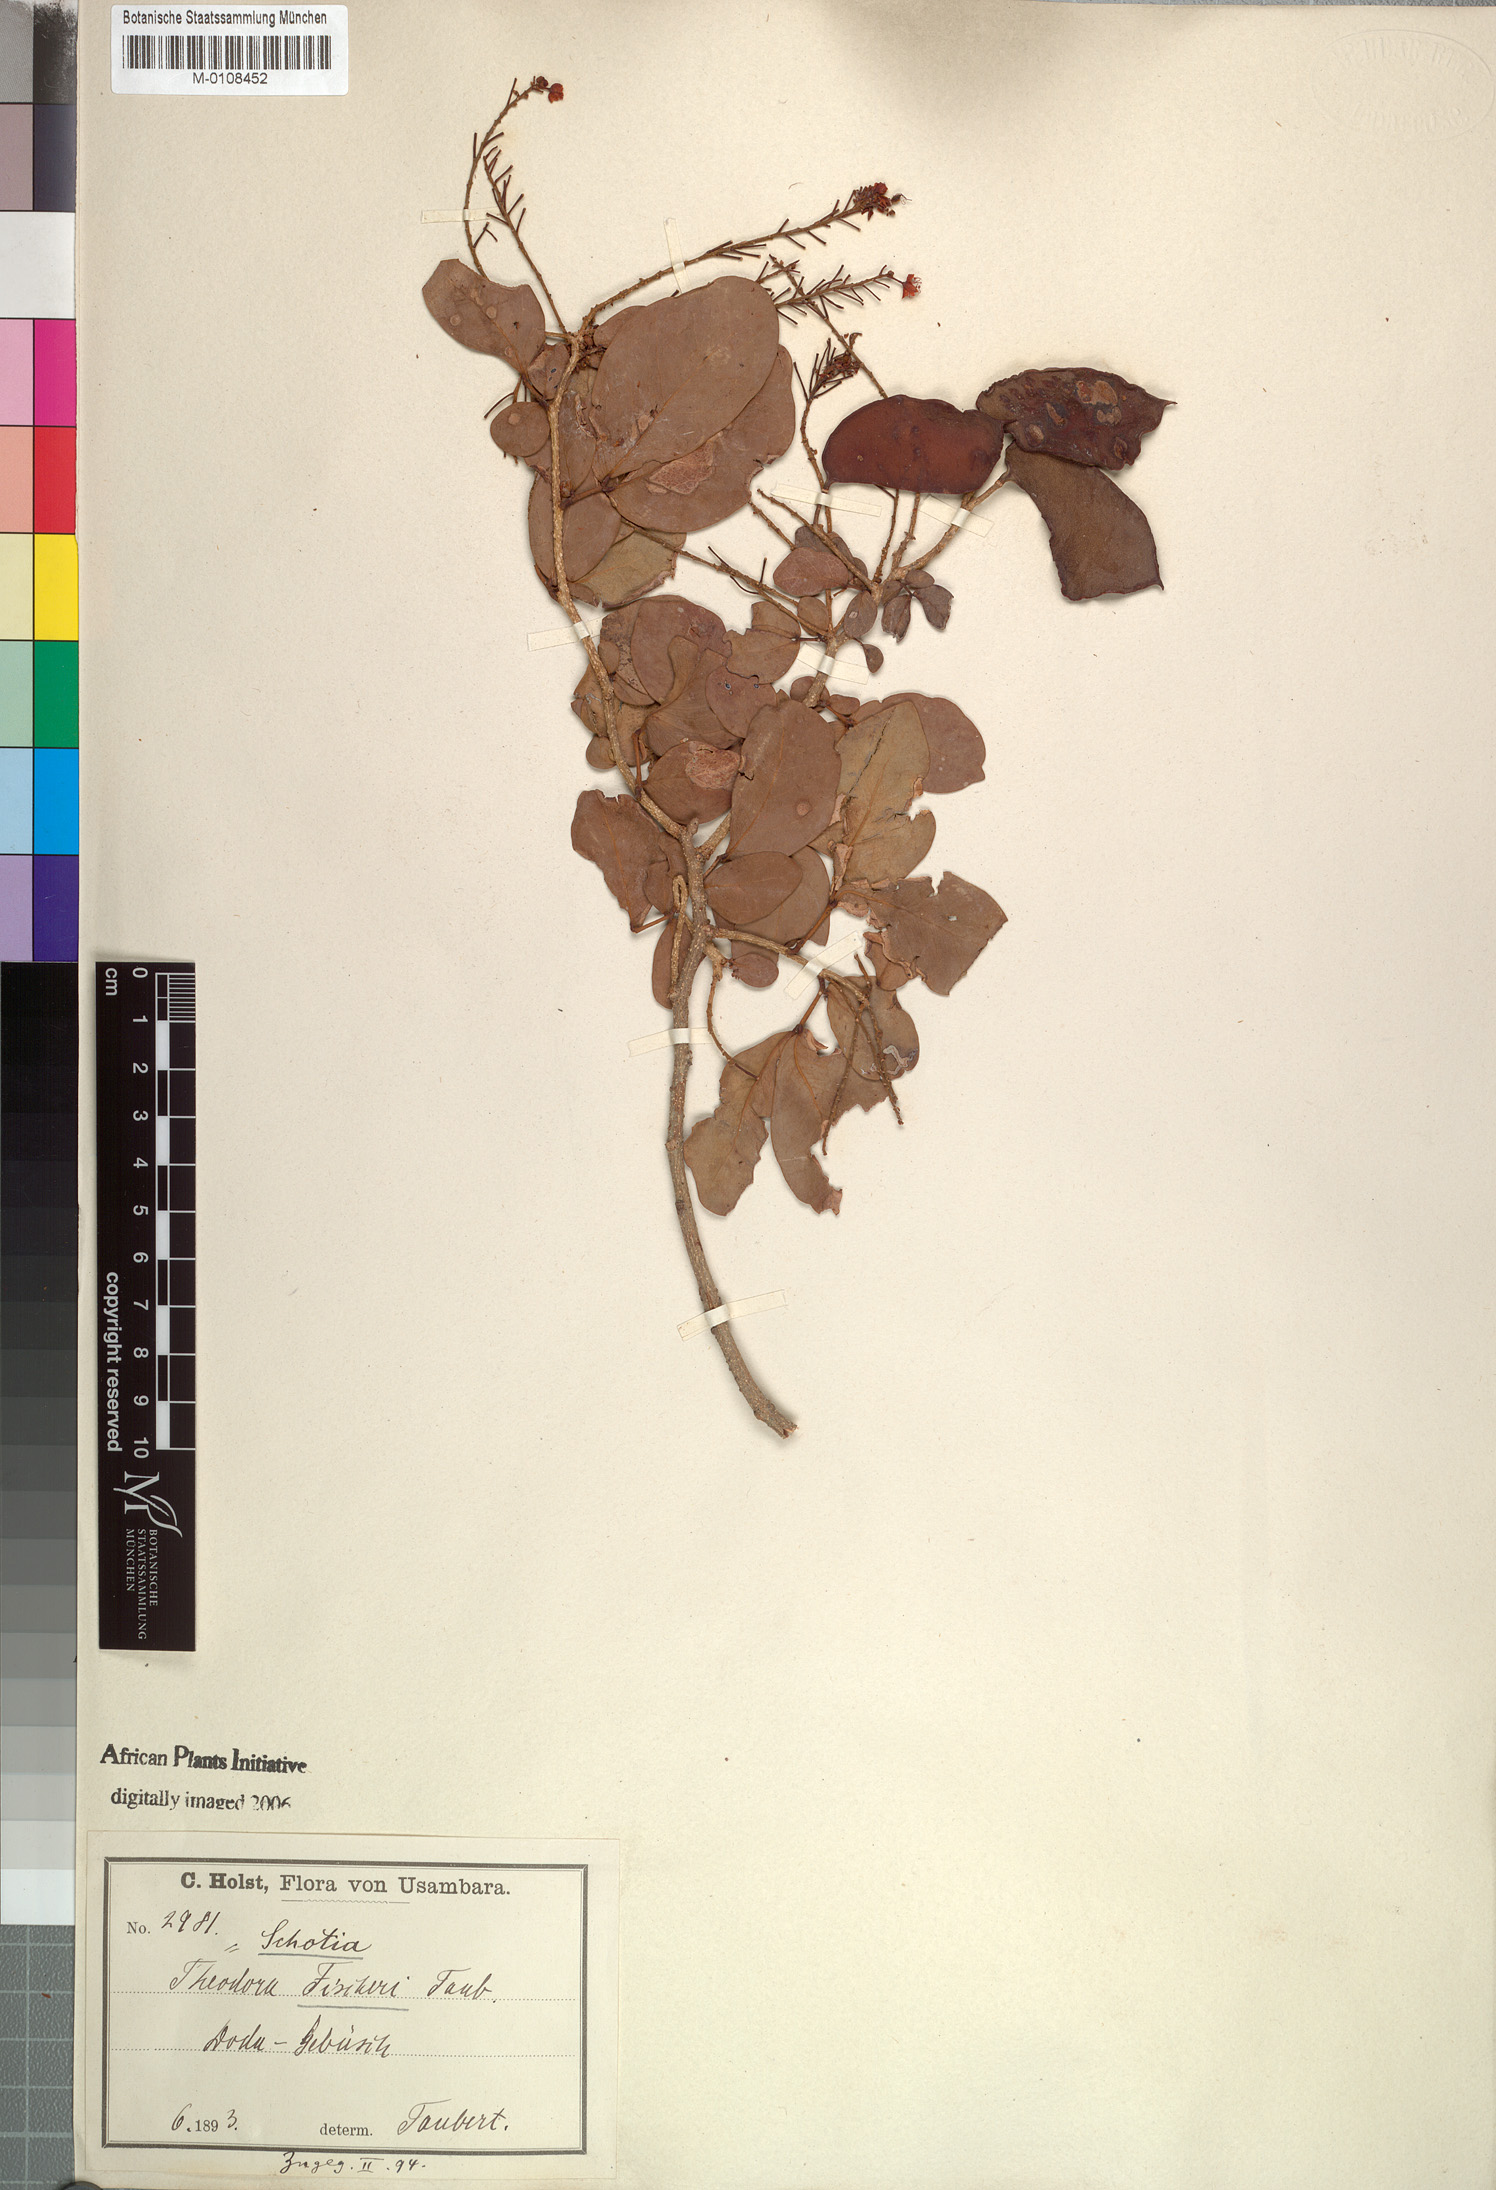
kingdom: Plantae
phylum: Tracheophyta
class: Magnoliopsida
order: Fabales
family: Fabaceae
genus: Scorodophloeus
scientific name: Scorodophloeus fischeri
